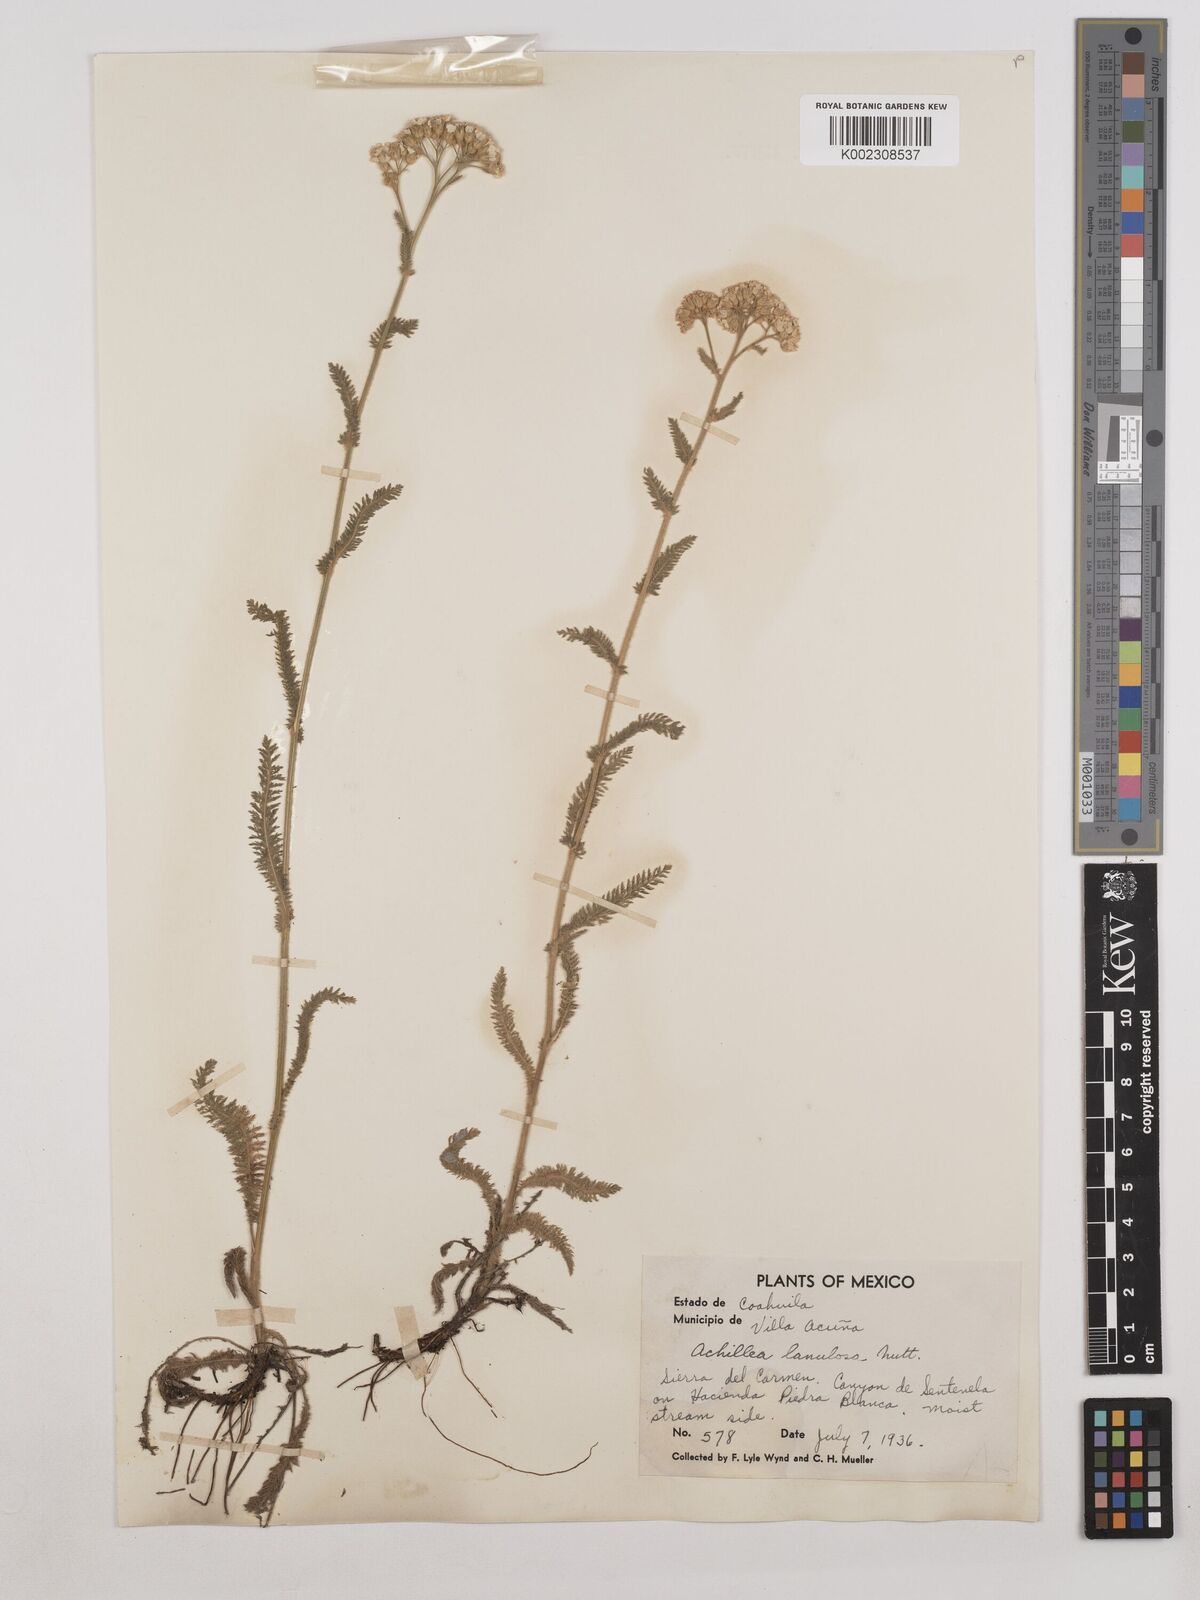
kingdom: Plantae
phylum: Tracheophyta
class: Magnoliopsida
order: Asterales
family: Asteraceae
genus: Achillea
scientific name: Achillea millefolium
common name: Yarrow
